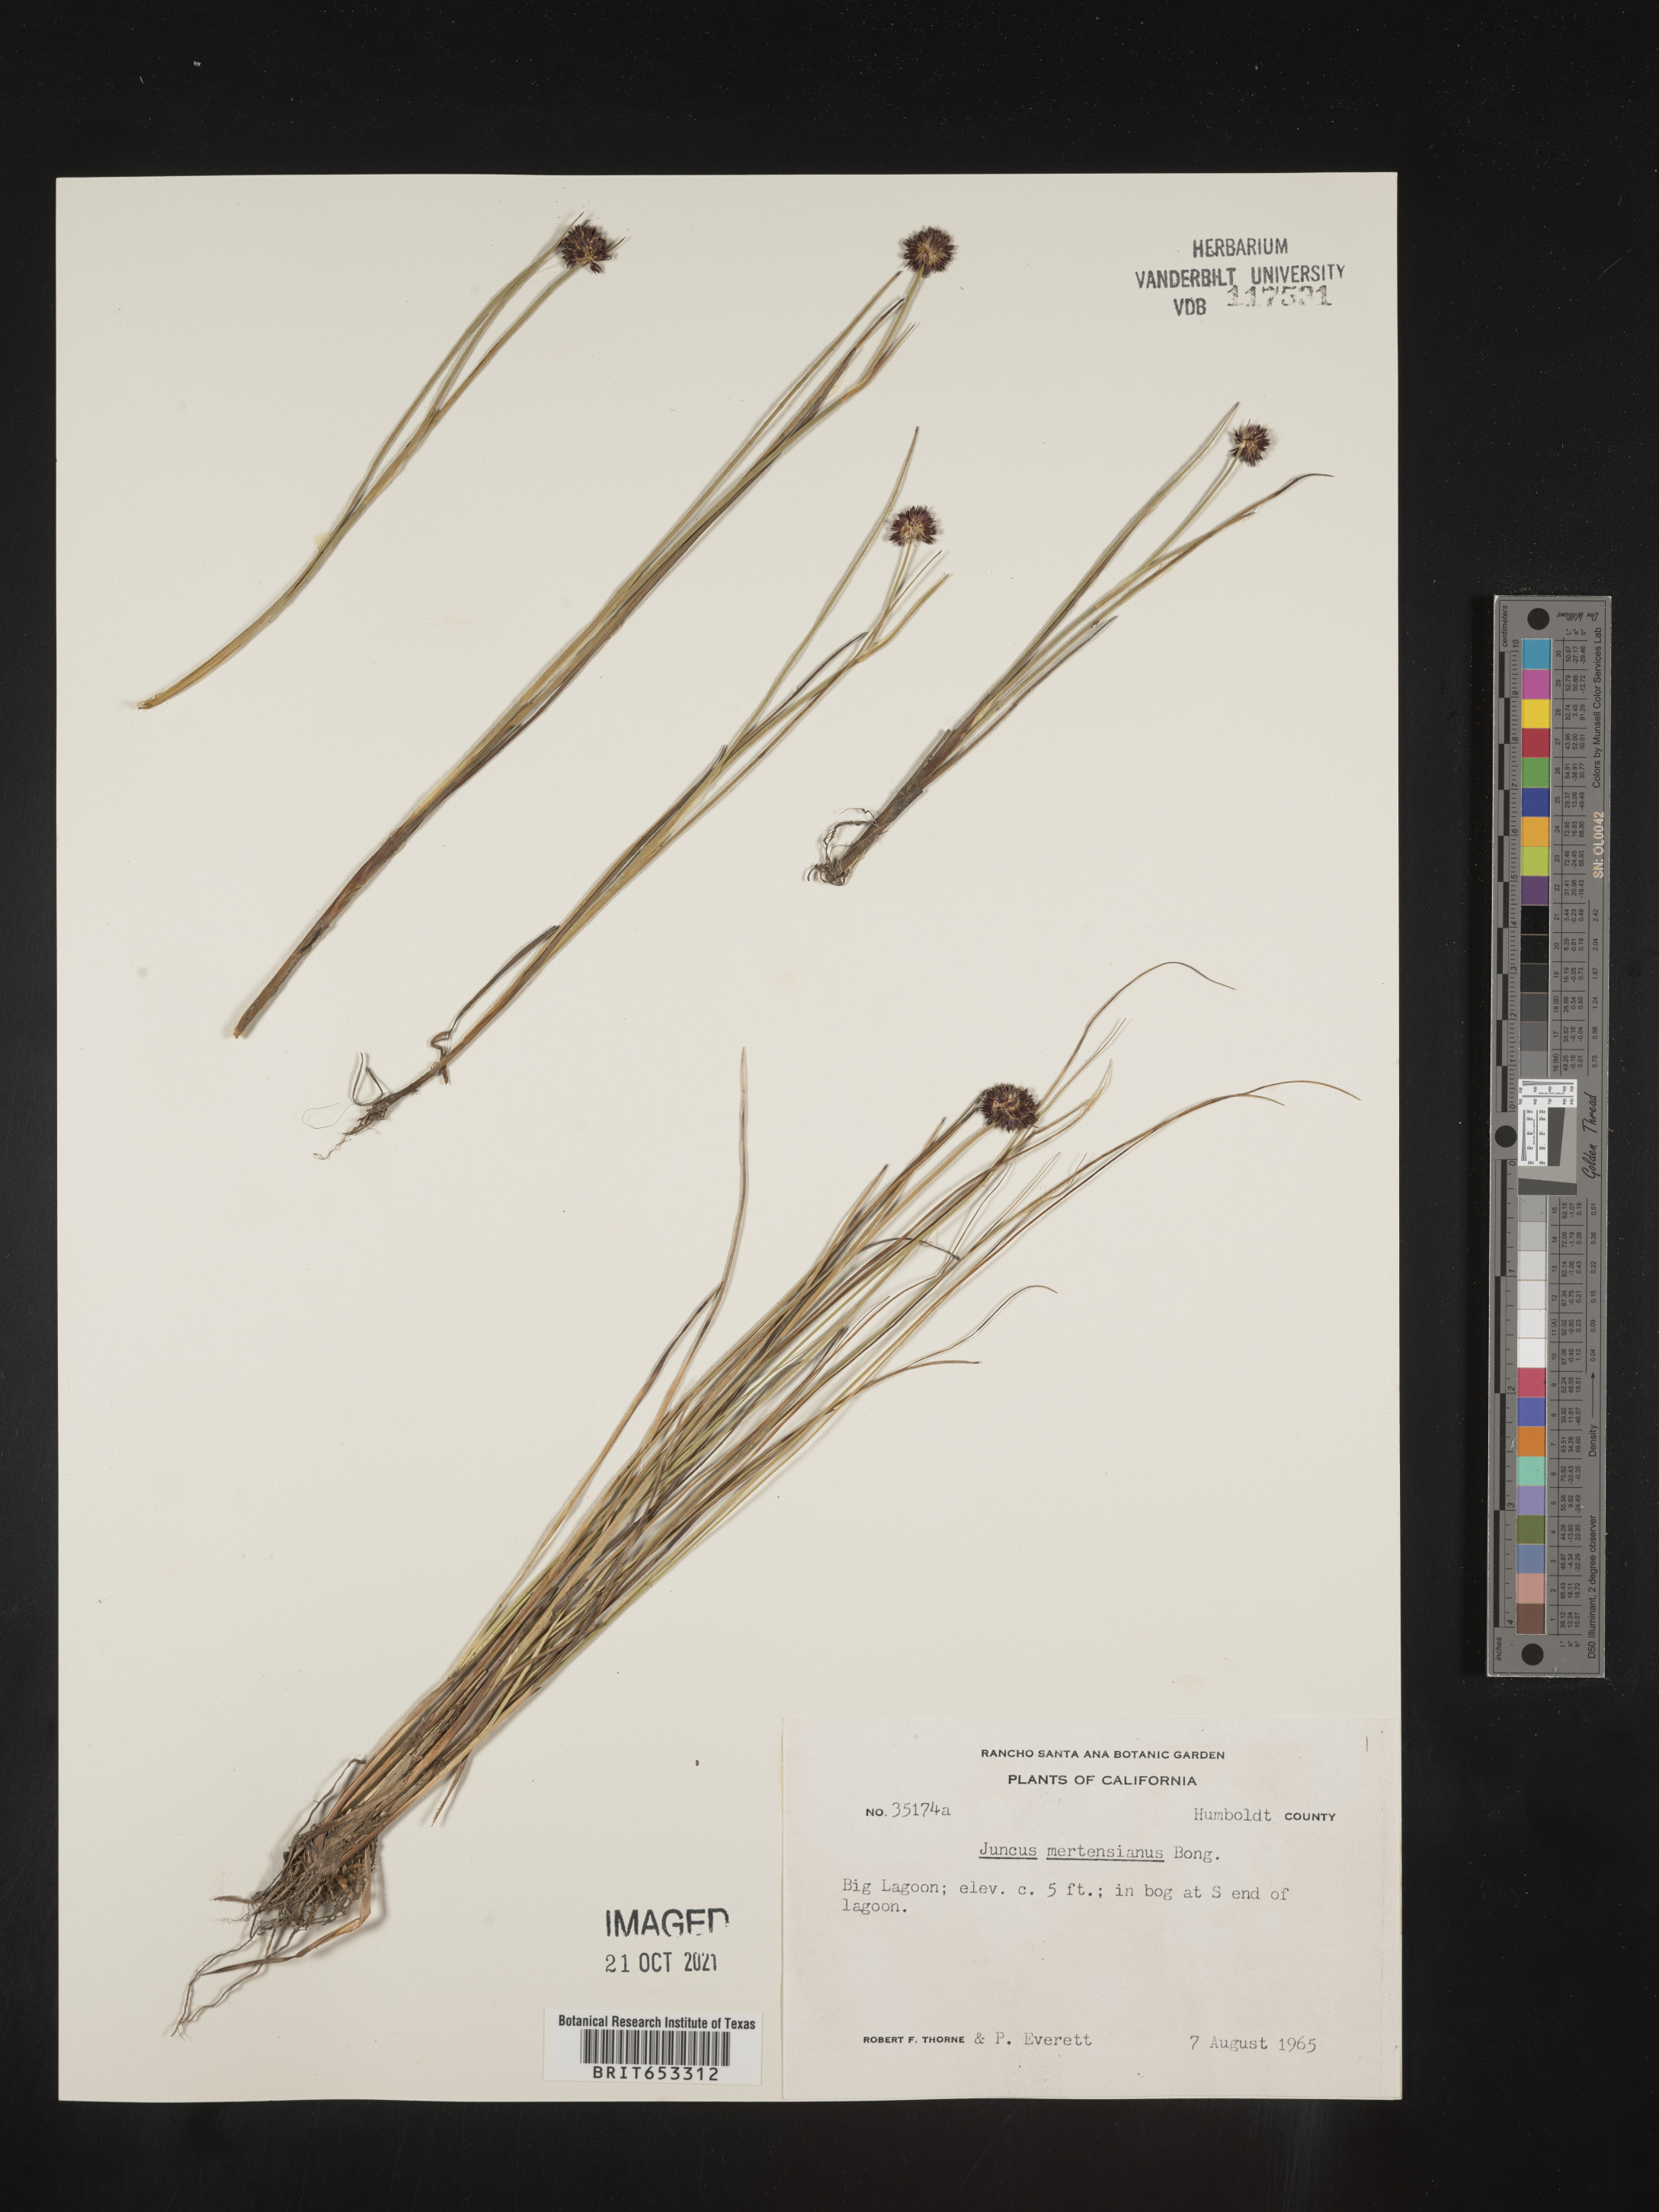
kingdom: Plantae
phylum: Tracheophyta
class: Liliopsida
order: Poales
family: Juncaceae
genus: Juncus
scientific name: Juncus mertensianus
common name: Merten's rush
